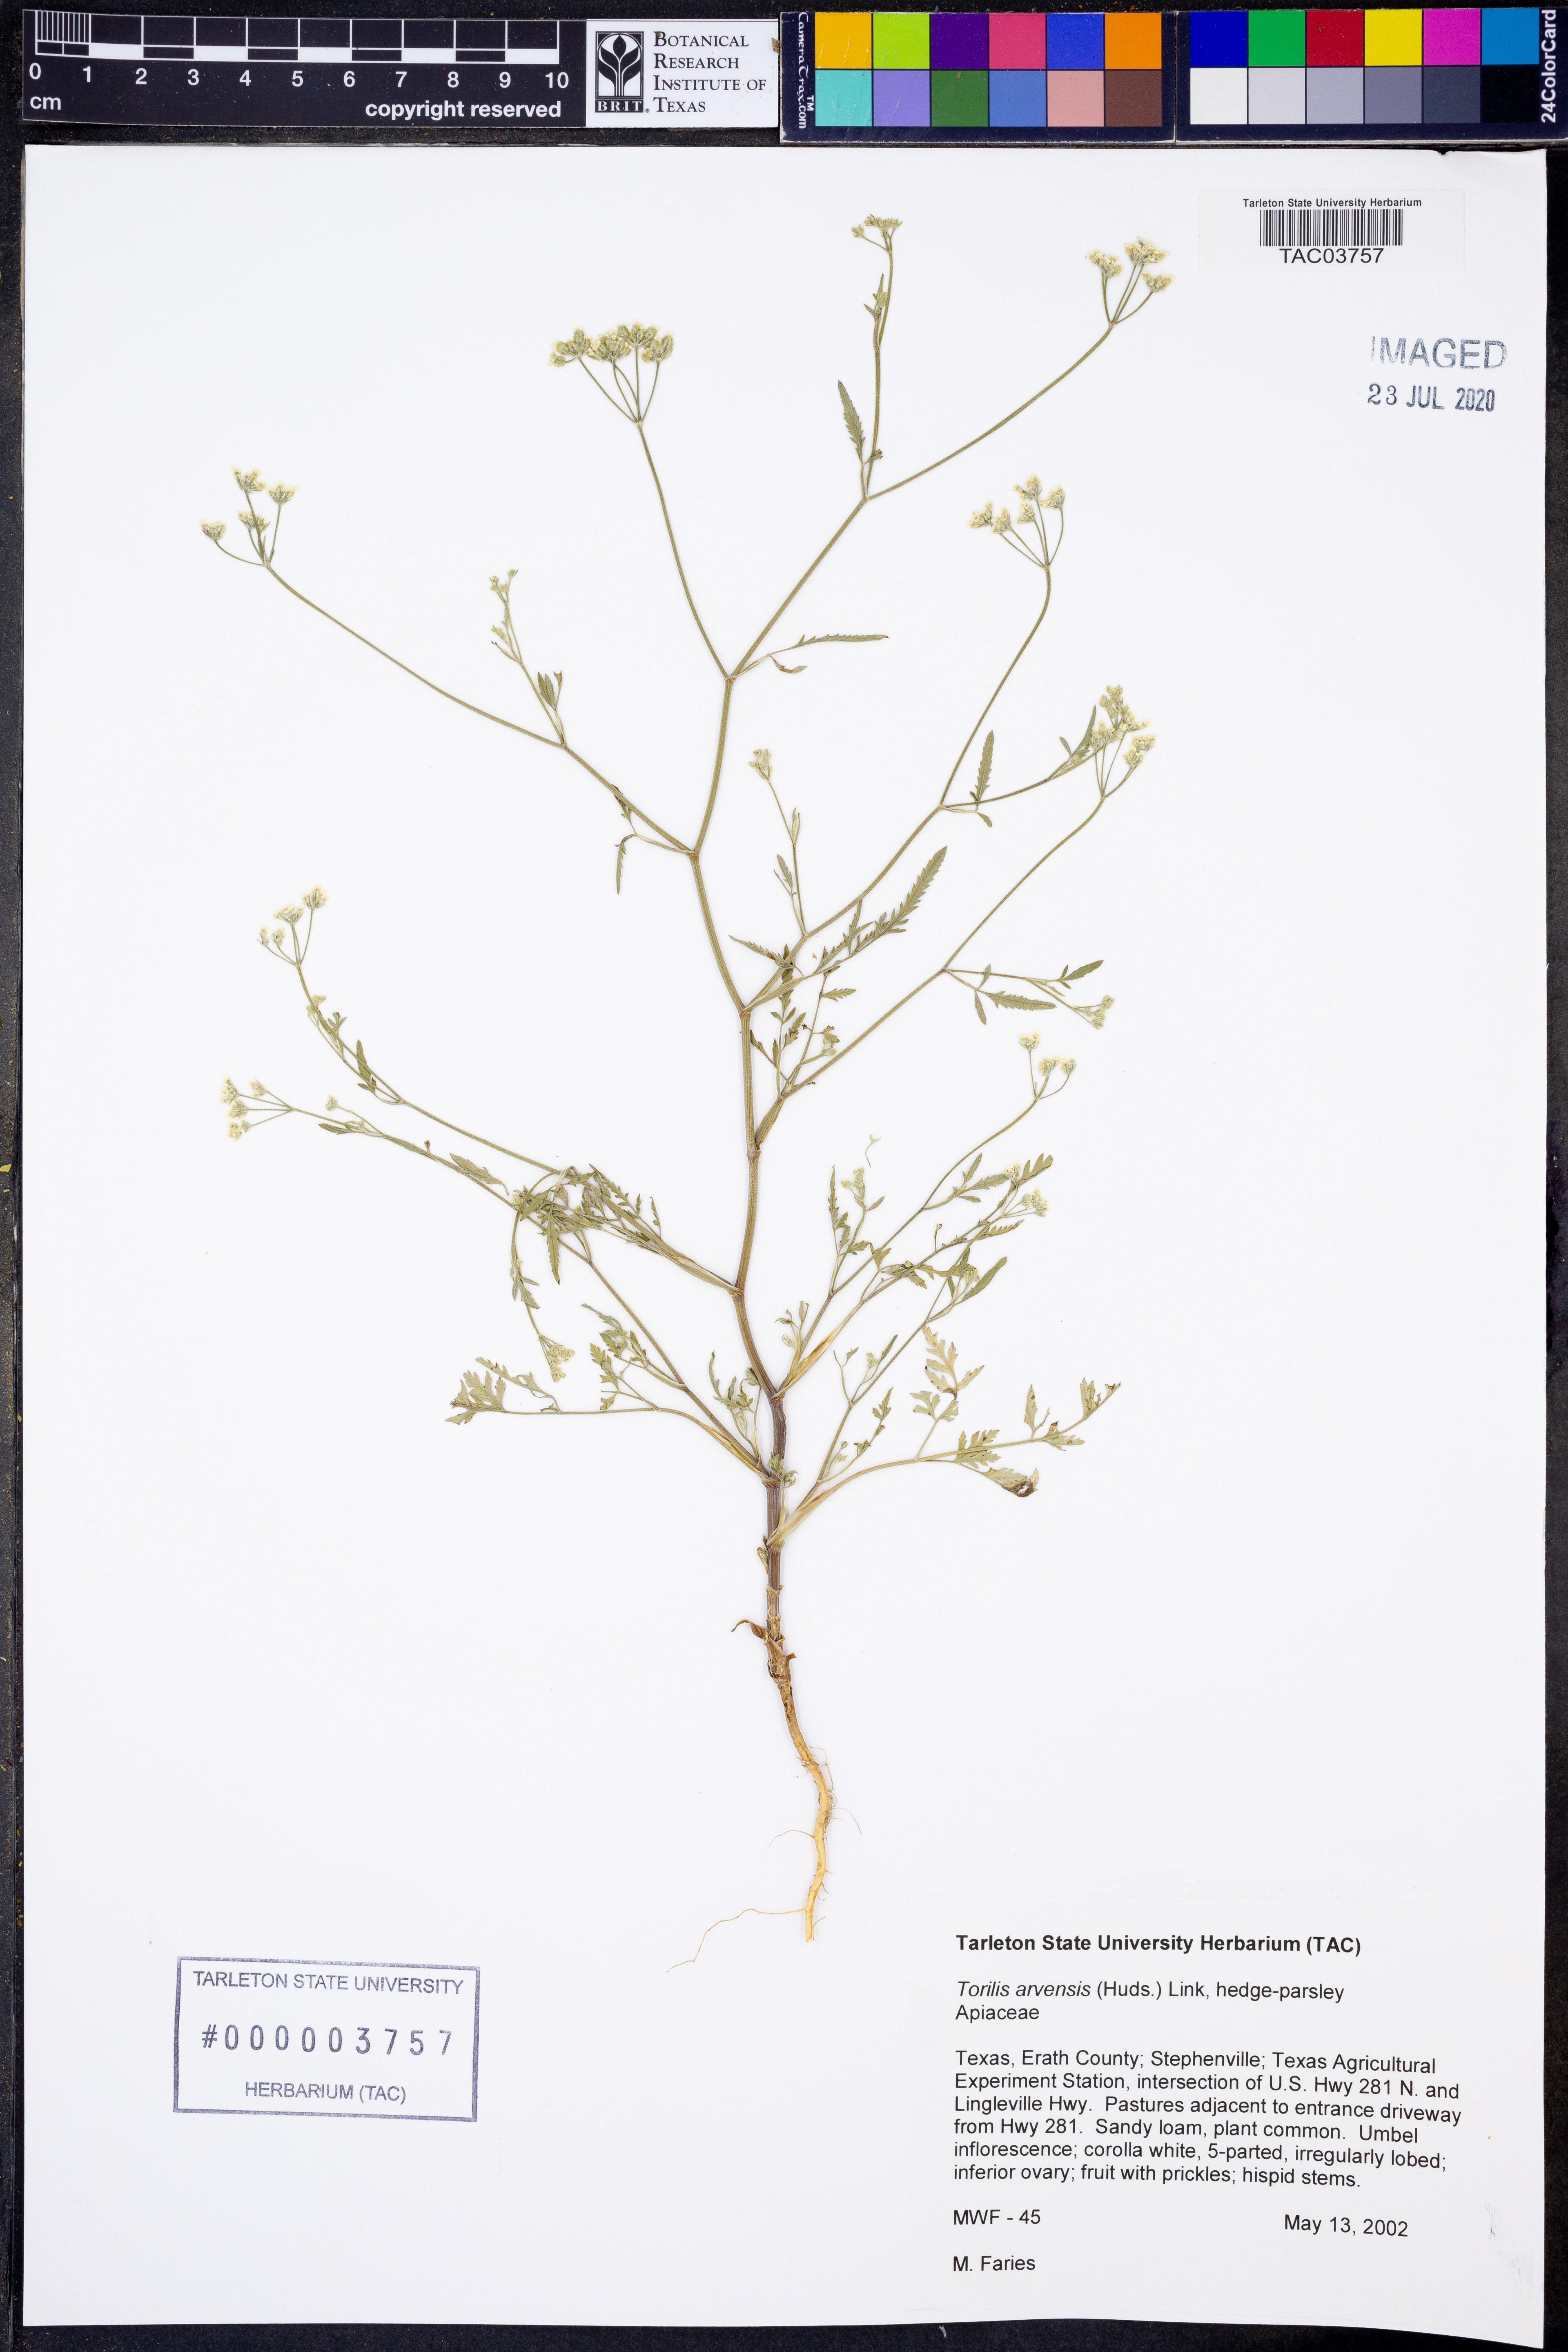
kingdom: Plantae
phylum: Tracheophyta
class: Magnoliopsida
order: Apiales
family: Apiaceae
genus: Torilis
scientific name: Torilis arvensis
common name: Spreading hedge-parsley
